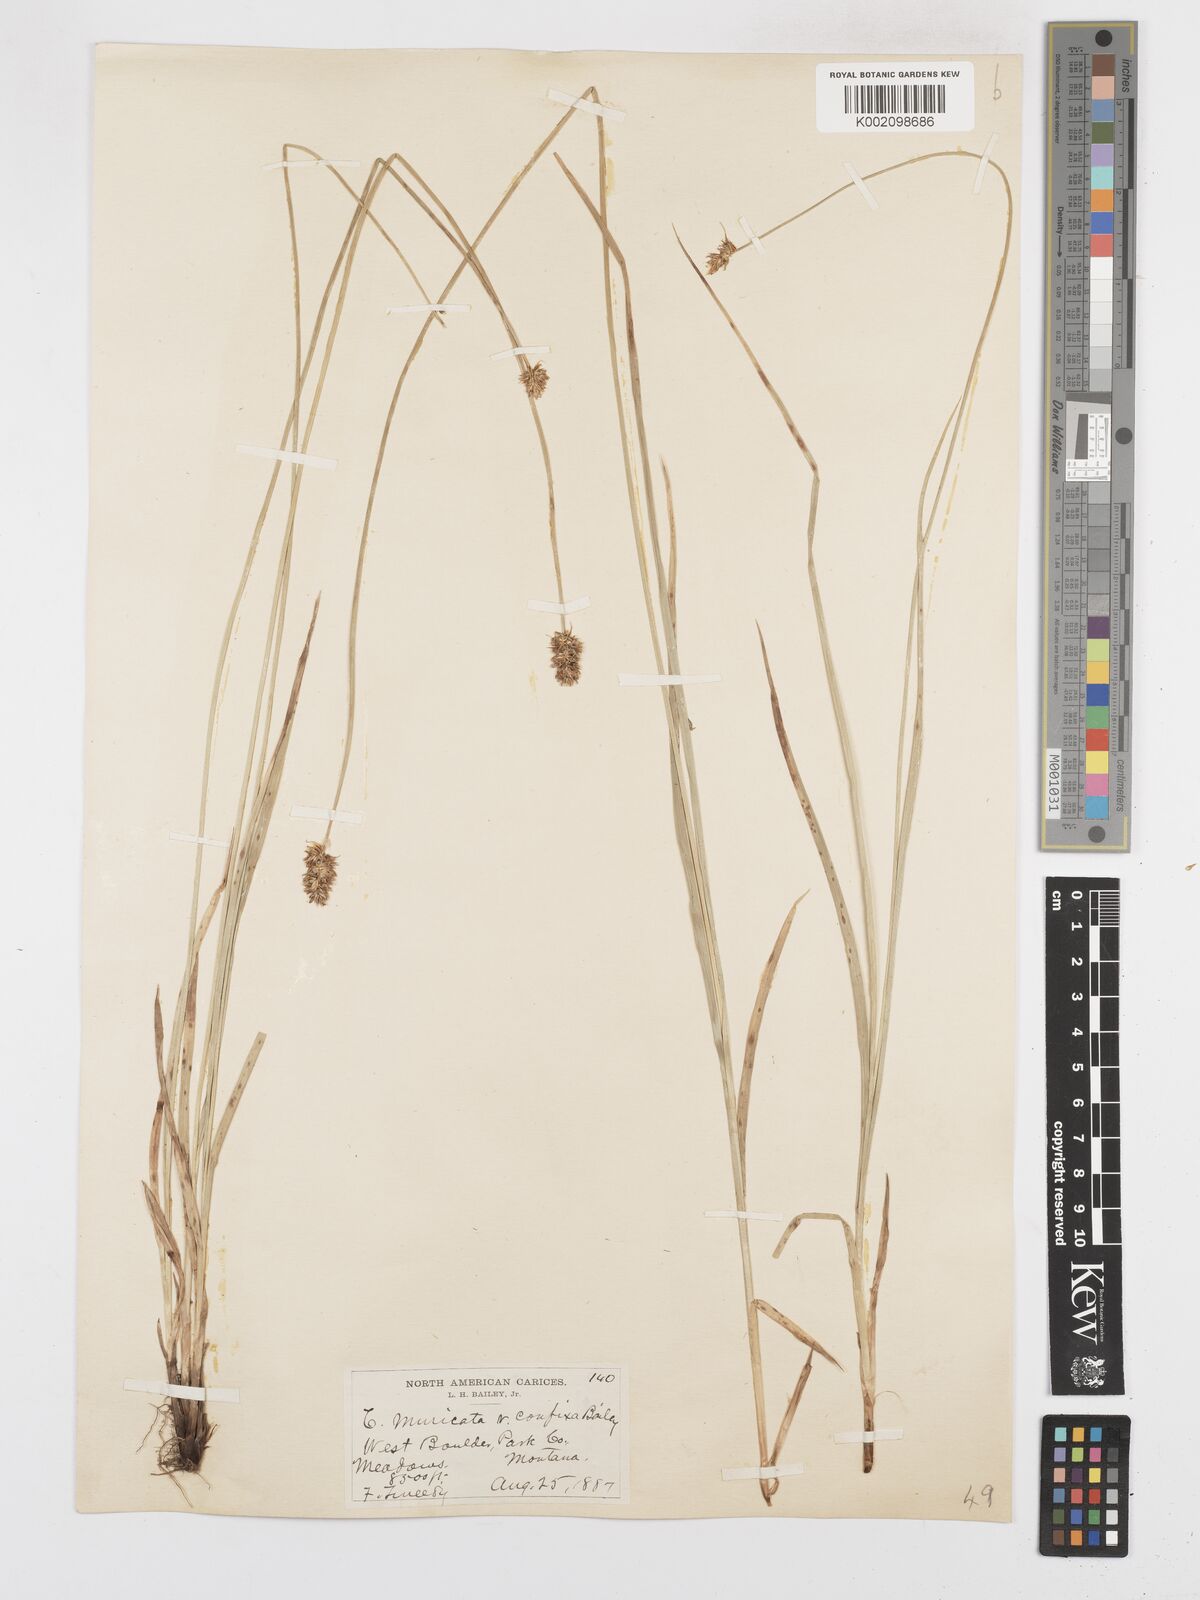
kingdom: Plantae
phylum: Tracheophyta
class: Liliopsida
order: Poales
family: Cyperaceae
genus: Carex
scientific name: Carex spicata
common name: Spiked sedge
